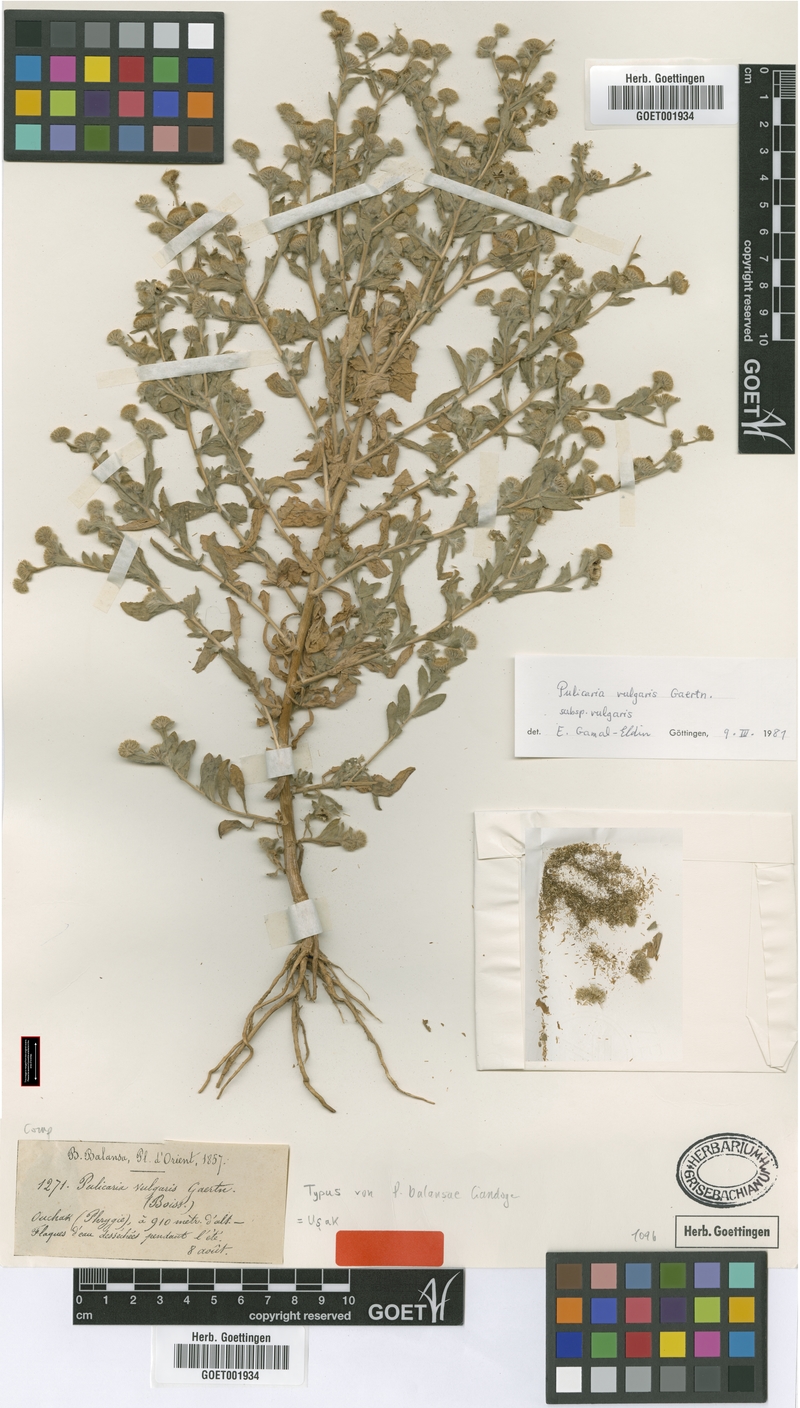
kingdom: Plantae
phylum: Tracheophyta
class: Magnoliopsida
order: Asterales
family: Asteraceae
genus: Pulicaria
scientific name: Pulicaria vulgaris
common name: Small fleabane
